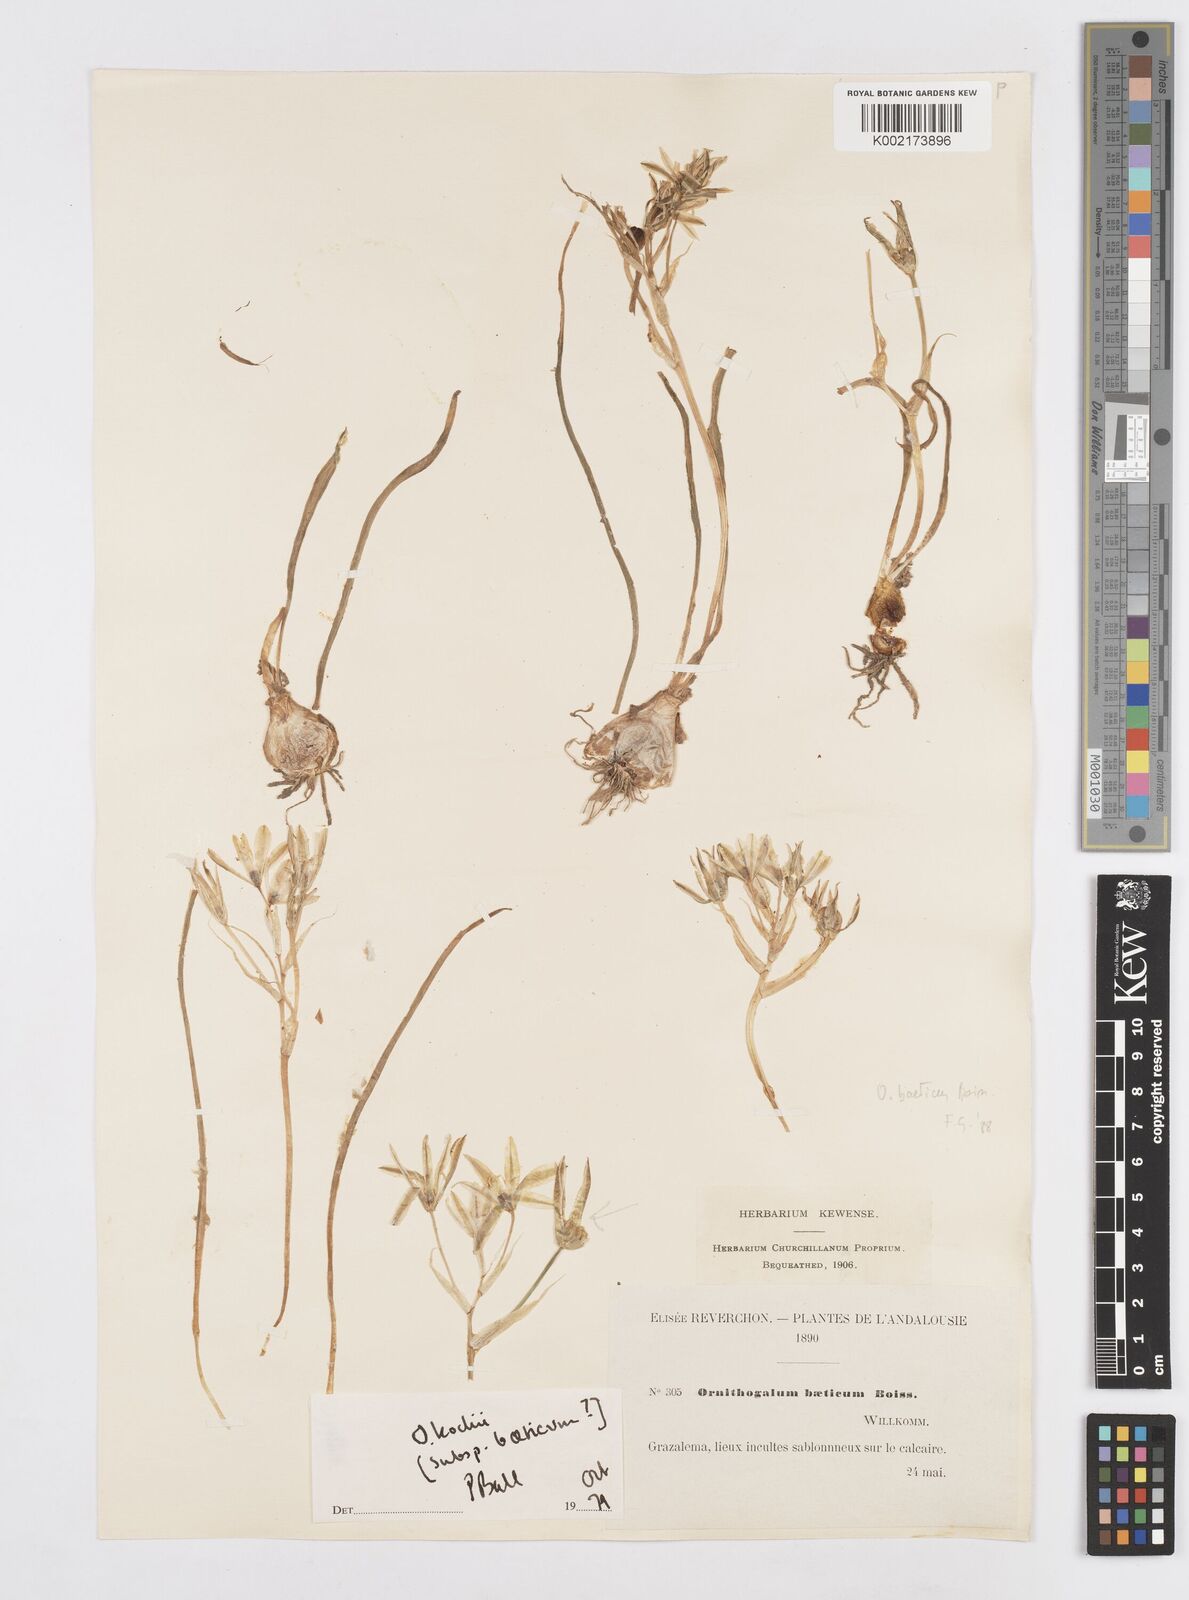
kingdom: Plantae
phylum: Tracheophyta
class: Liliopsida
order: Asparagales
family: Asparagaceae
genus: Ornithogalum
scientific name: Ornithogalum orthophyllum
